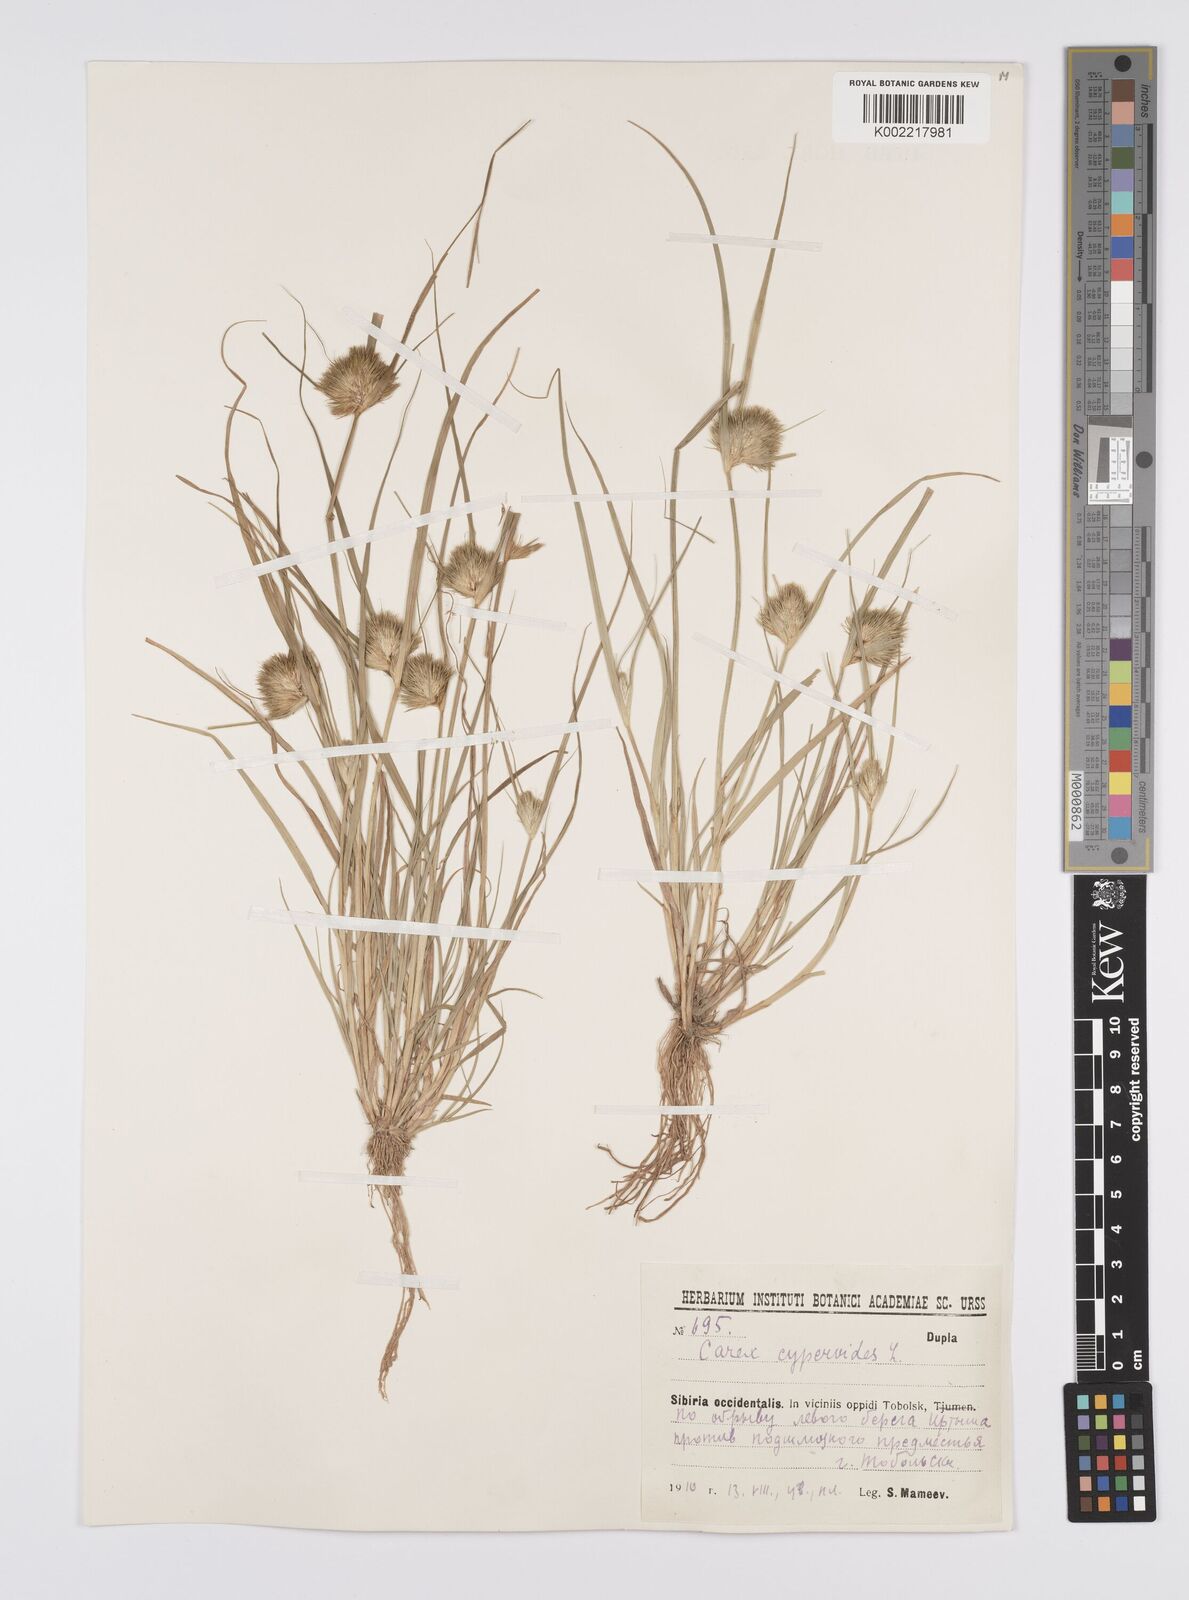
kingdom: Plantae
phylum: Tracheophyta
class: Liliopsida
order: Poales
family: Cyperaceae
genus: Carex
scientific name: Carex bohemica
